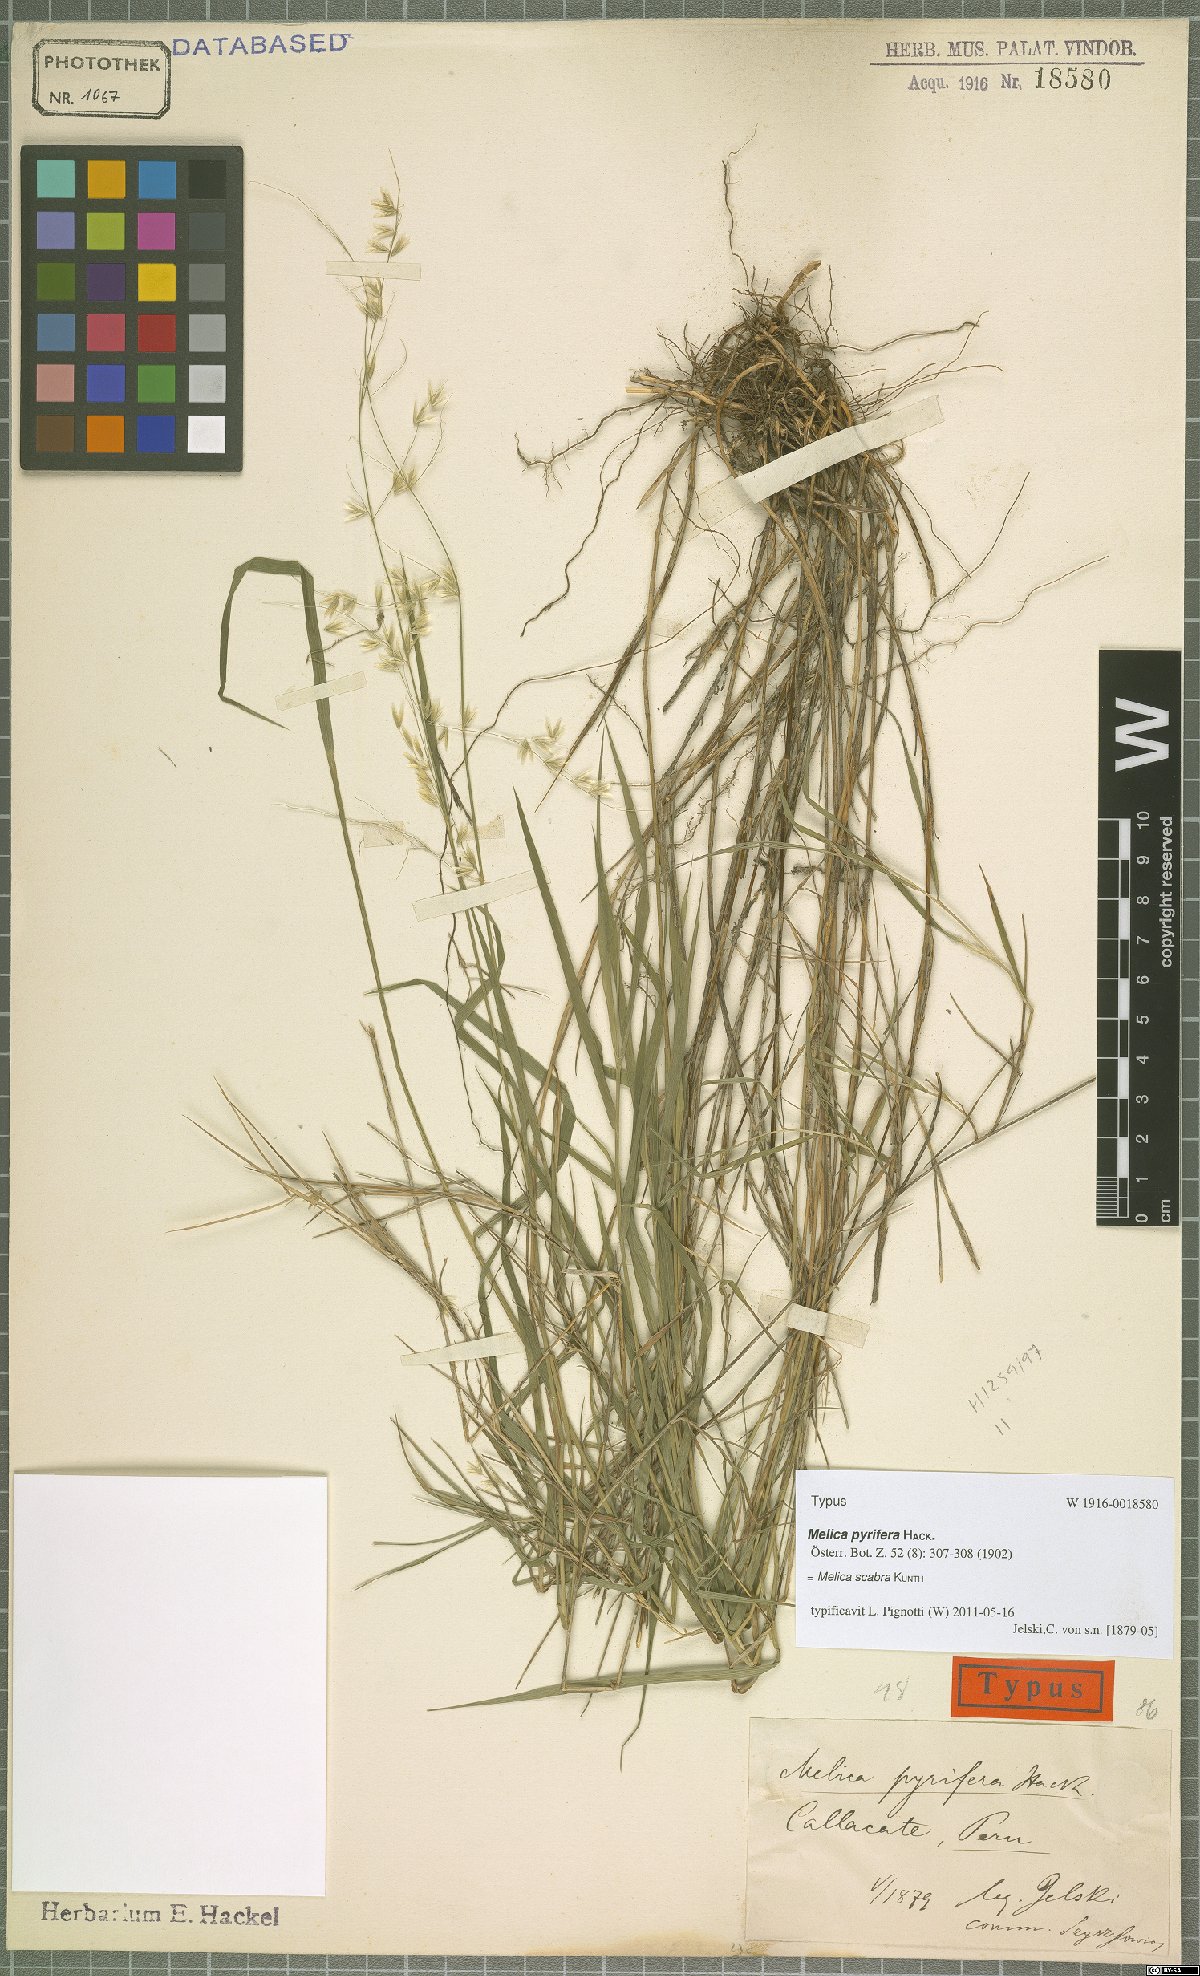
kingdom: Plantae
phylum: Tracheophyta
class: Liliopsida
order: Poales
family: Poaceae
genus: Melica
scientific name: Melica scabra
